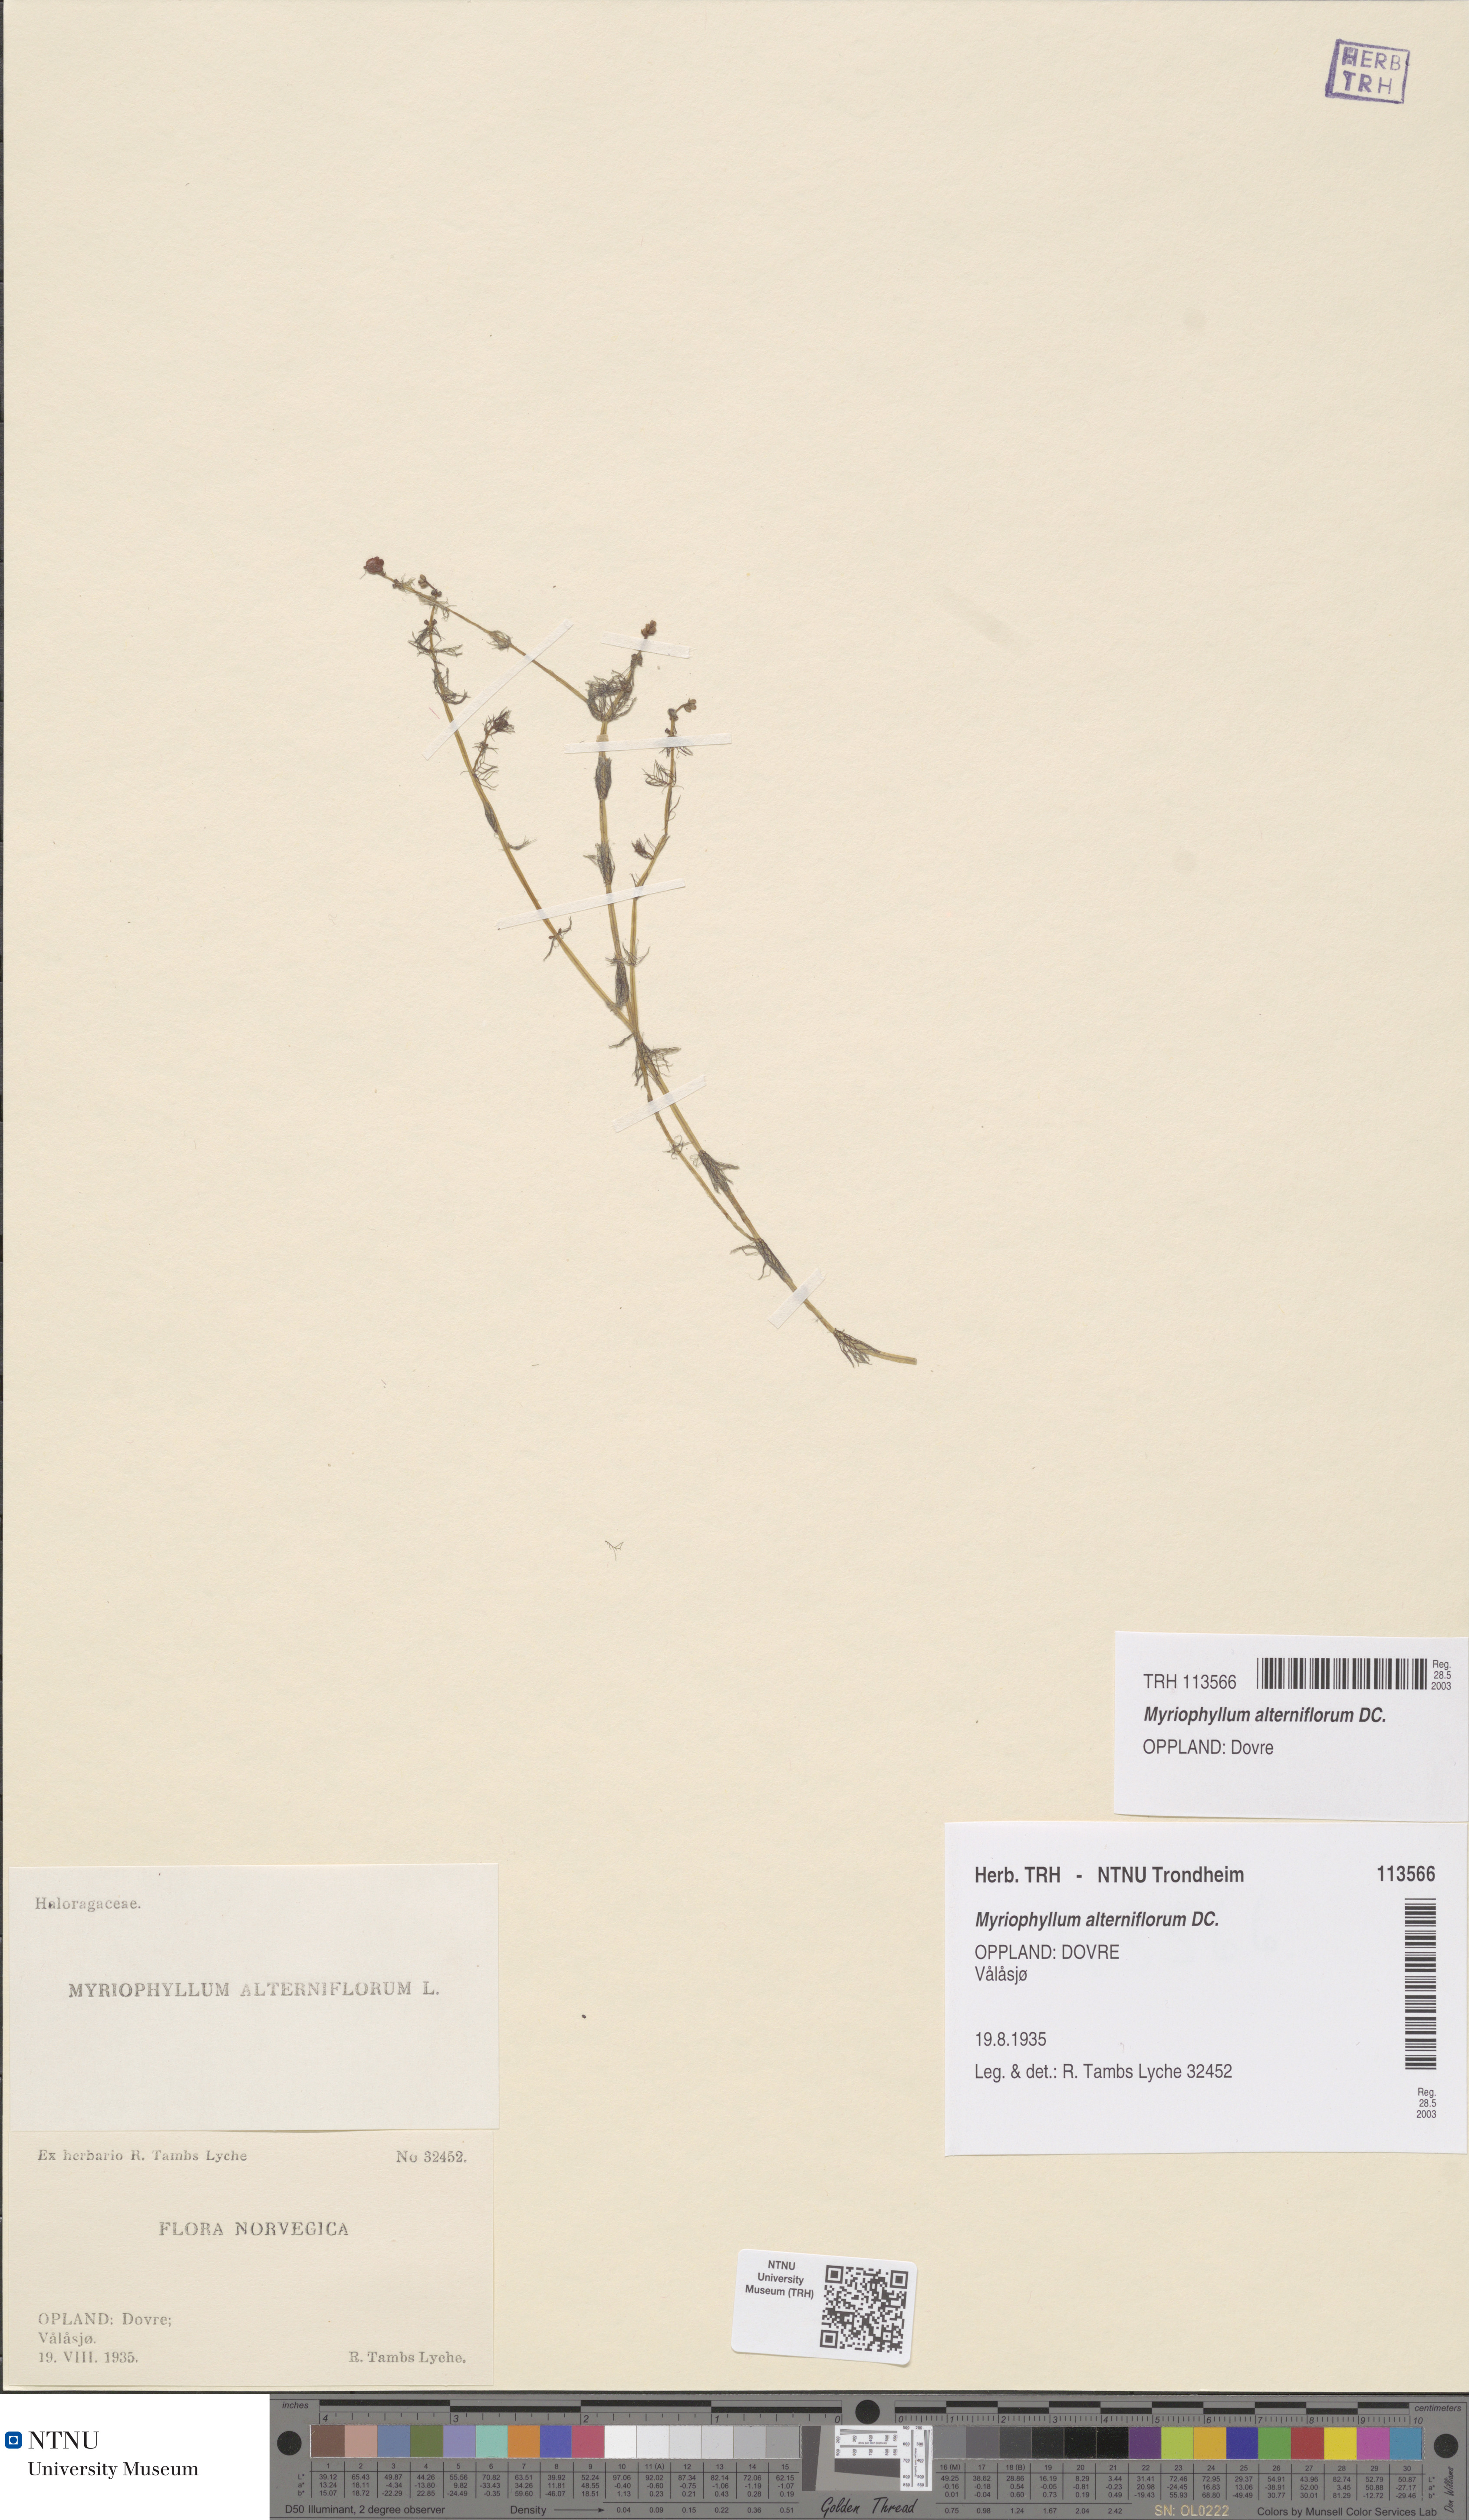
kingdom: Plantae
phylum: Tracheophyta
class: Magnoliopsida
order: Saxifragales
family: Haloragaceae
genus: Myriophyllum
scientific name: Myriophyllum alterniflorum
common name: Alternate water-milfoil
